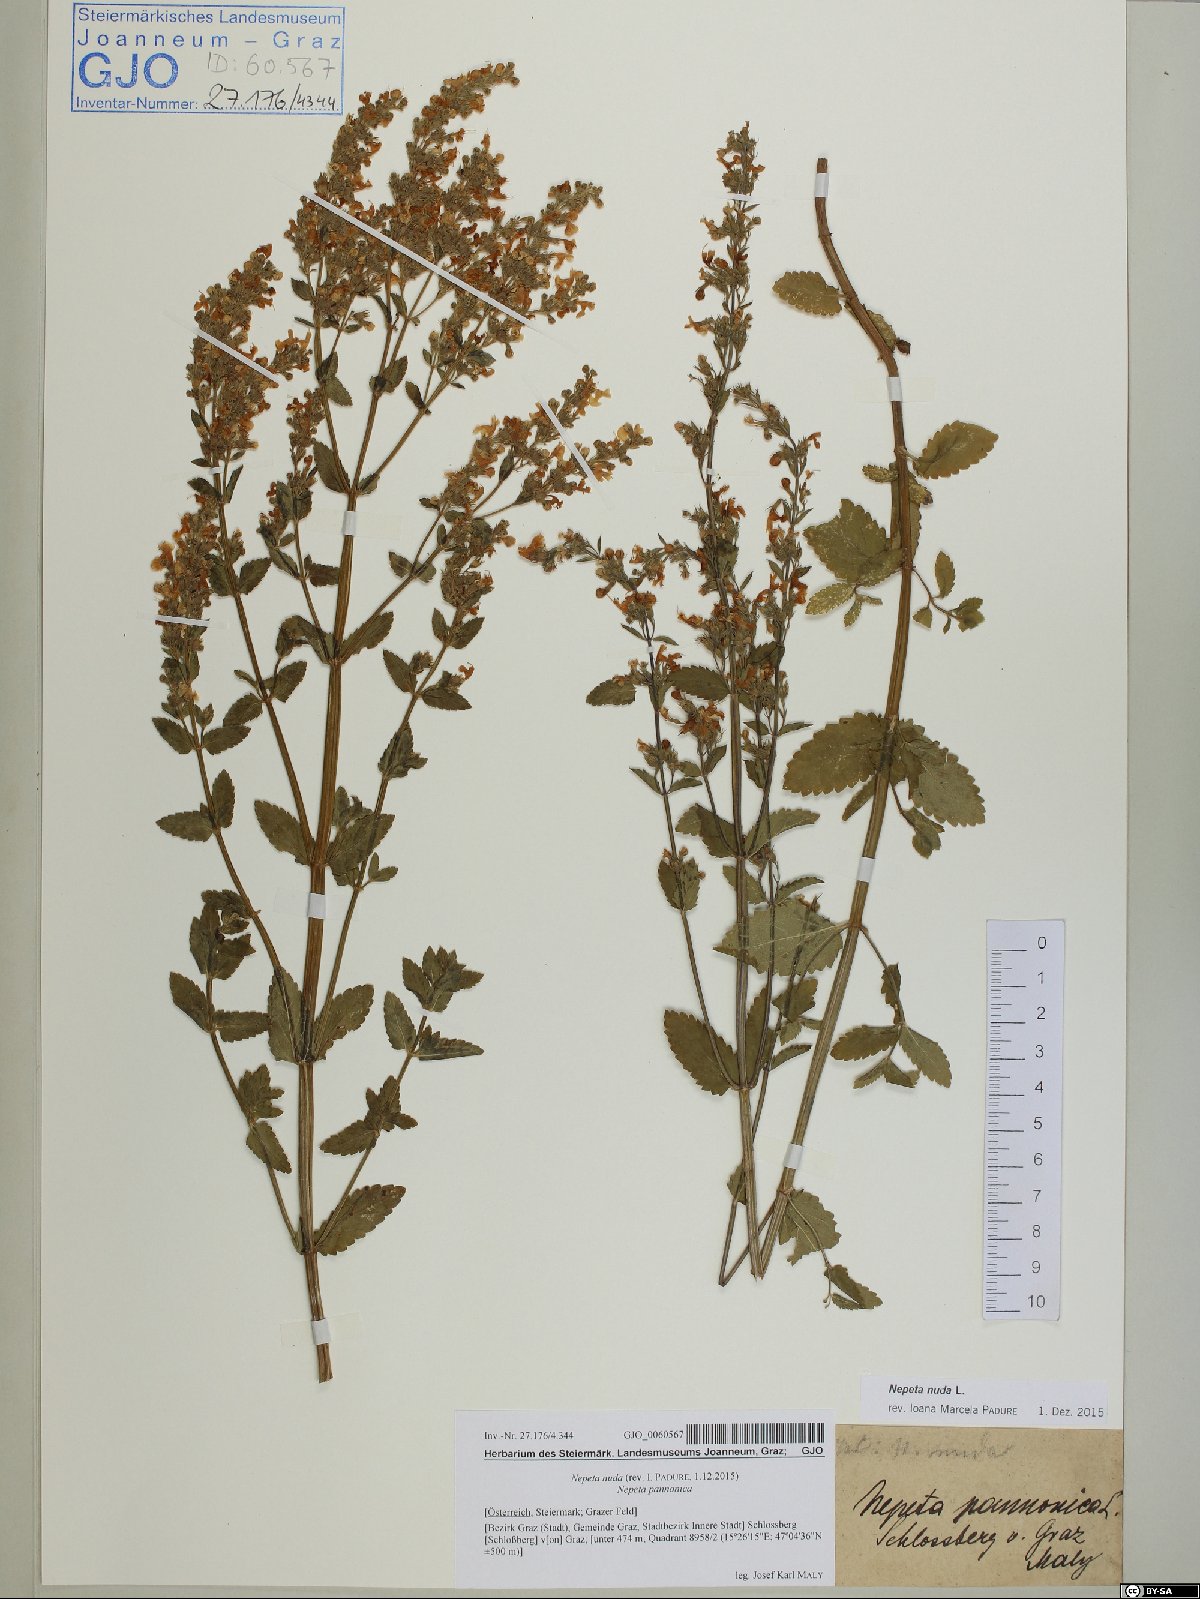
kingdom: Plantae
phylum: Tracheophyta
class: Magnoliopsida
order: Lamiales
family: Lamiaceae
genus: Nepeta
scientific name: Nepeta nuda
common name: Hairless catmint
